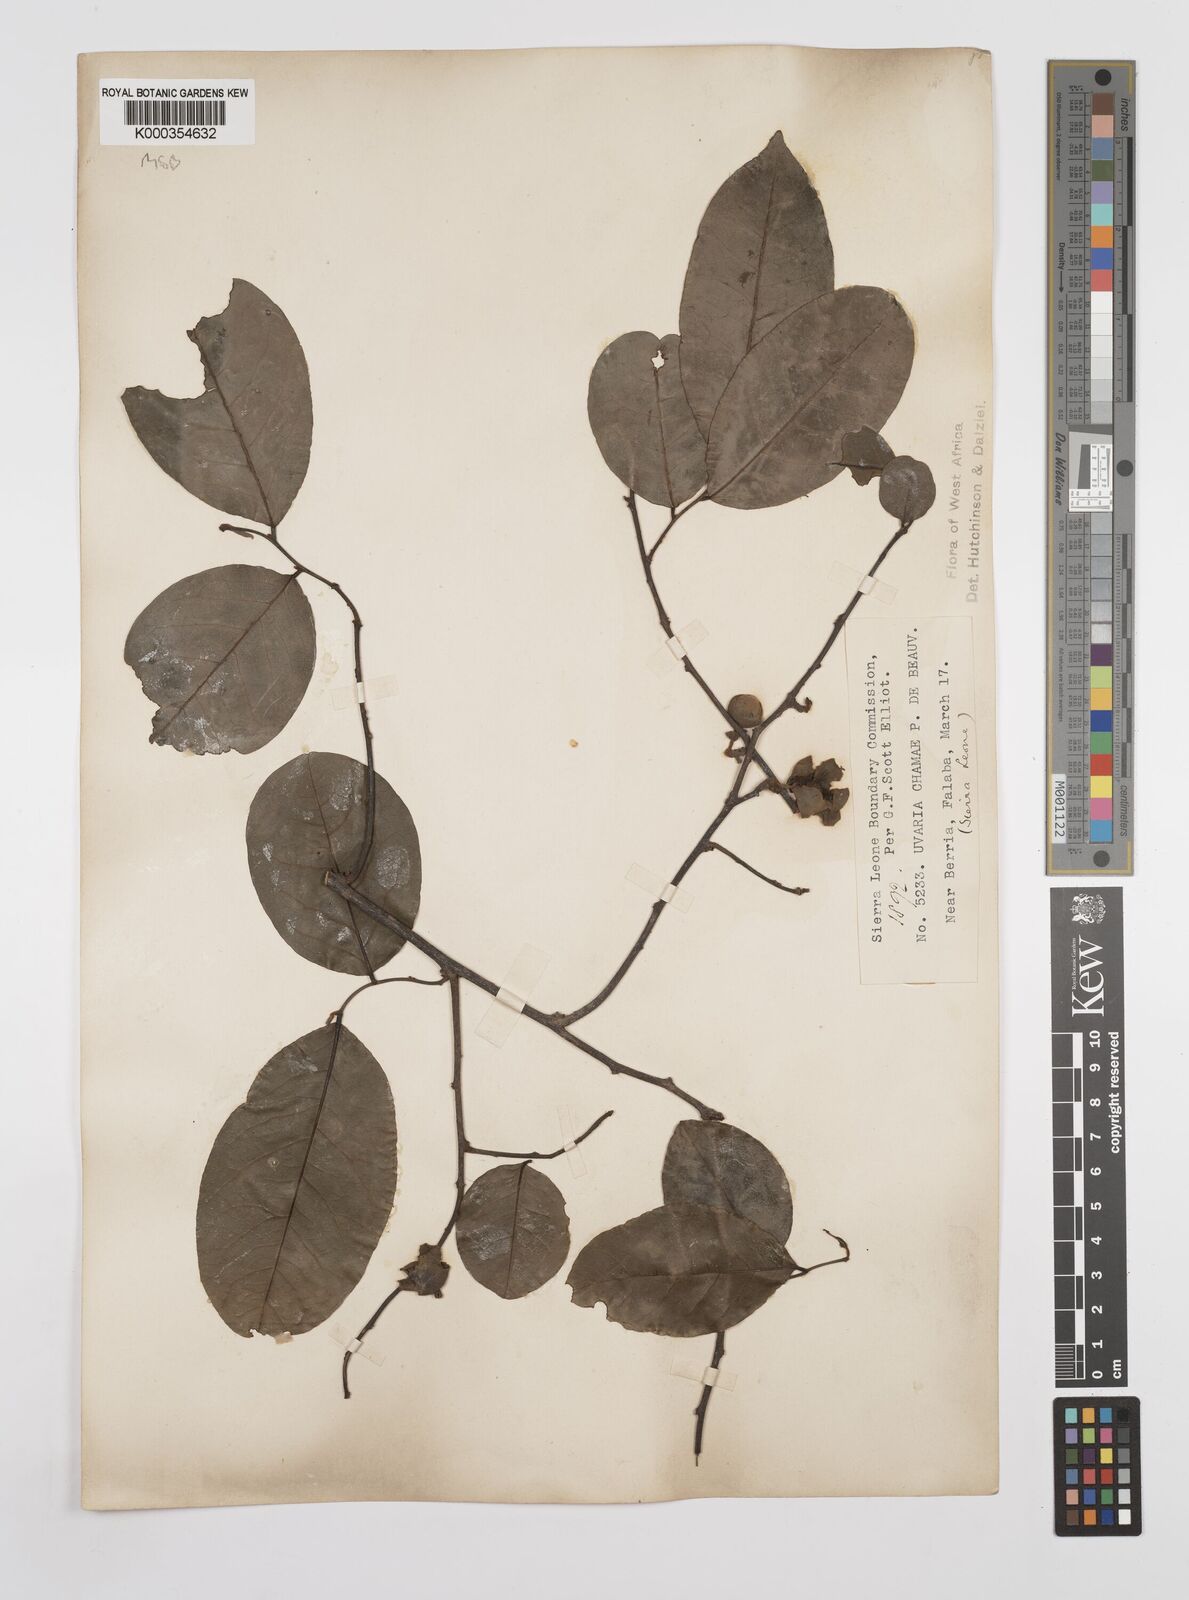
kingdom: Plantae
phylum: Tracheophyta
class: Magnoliopsida
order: Magnoliales
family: Annonaceae
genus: Uvaria
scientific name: Uvaria chamae
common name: Finger-root
